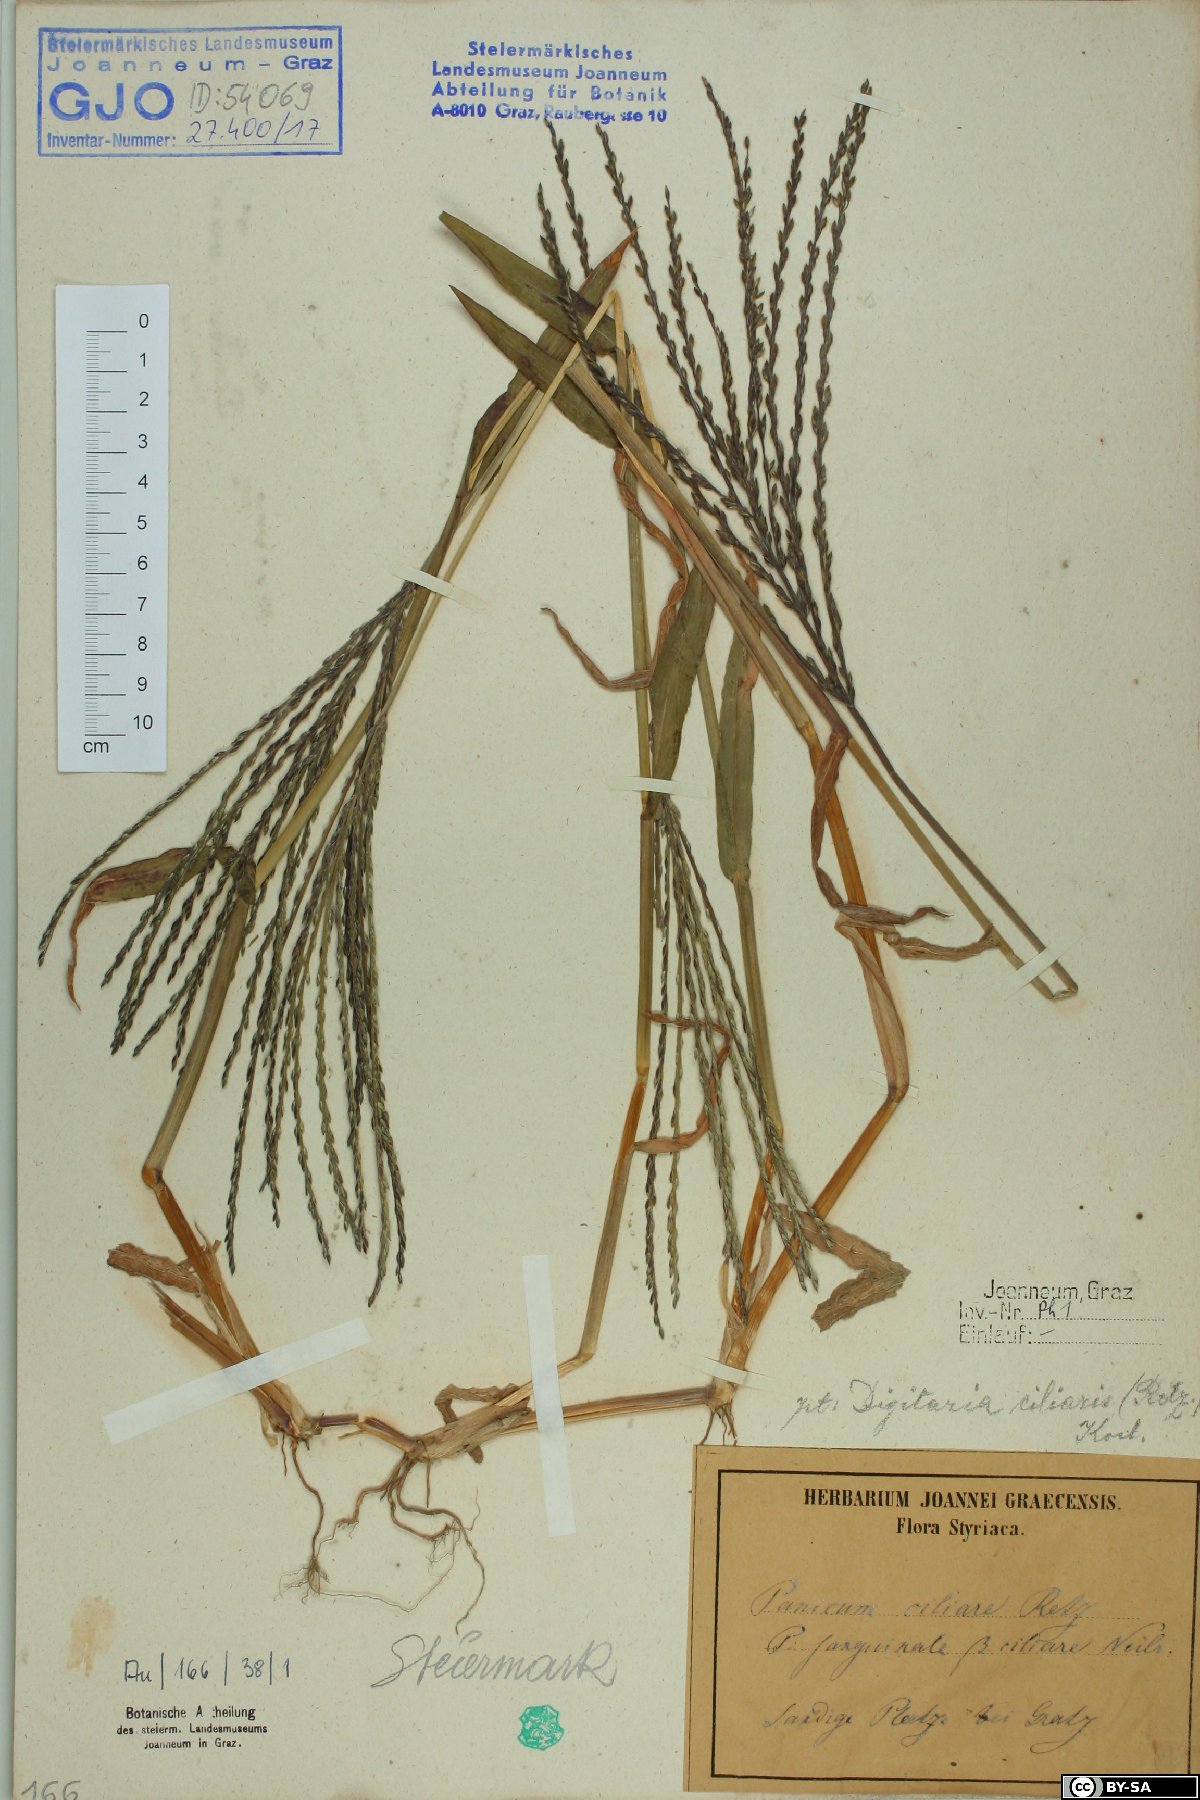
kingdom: Plantae
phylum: Tracheophyta
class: Liliopsida
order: Poales
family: Poaceae
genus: Digitaria
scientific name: Digitaria ciliaris
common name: Tropical finger-grass
